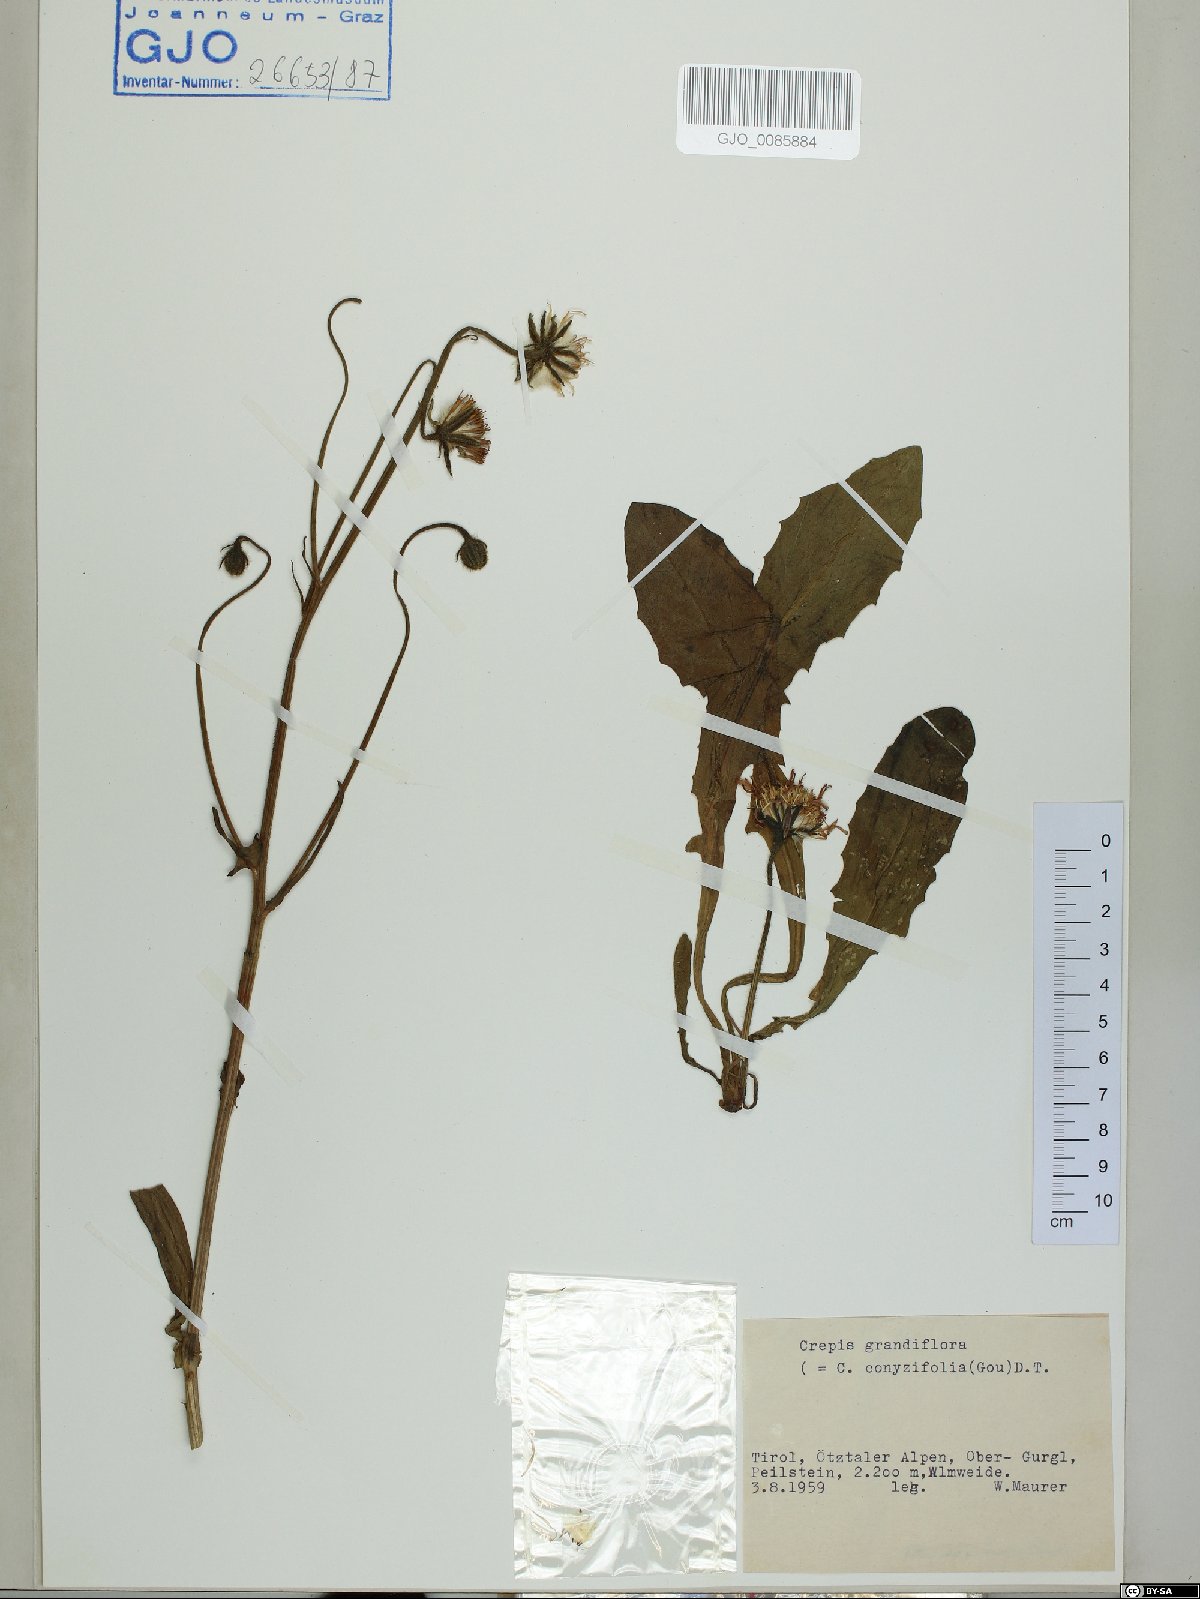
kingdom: Plantae
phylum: Tracheophyta
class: Magnoliopsida
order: Asterales
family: Asteraceae
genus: Crepis
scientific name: Crepis blattarioides
